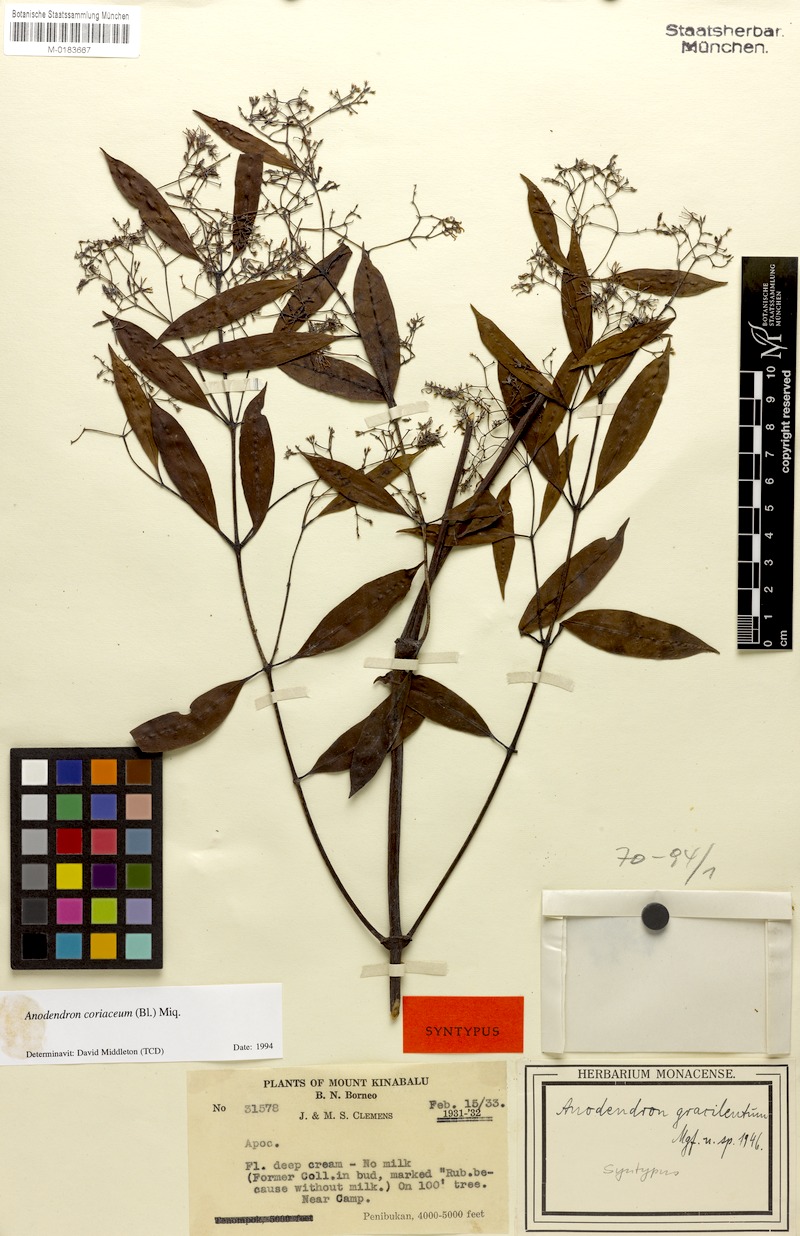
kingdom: Plantae
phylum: Tracheophyta
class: Magnoliopsida
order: Gentianales
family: Apocynaceae
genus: Anodendron
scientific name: Anodendron coriaceum
